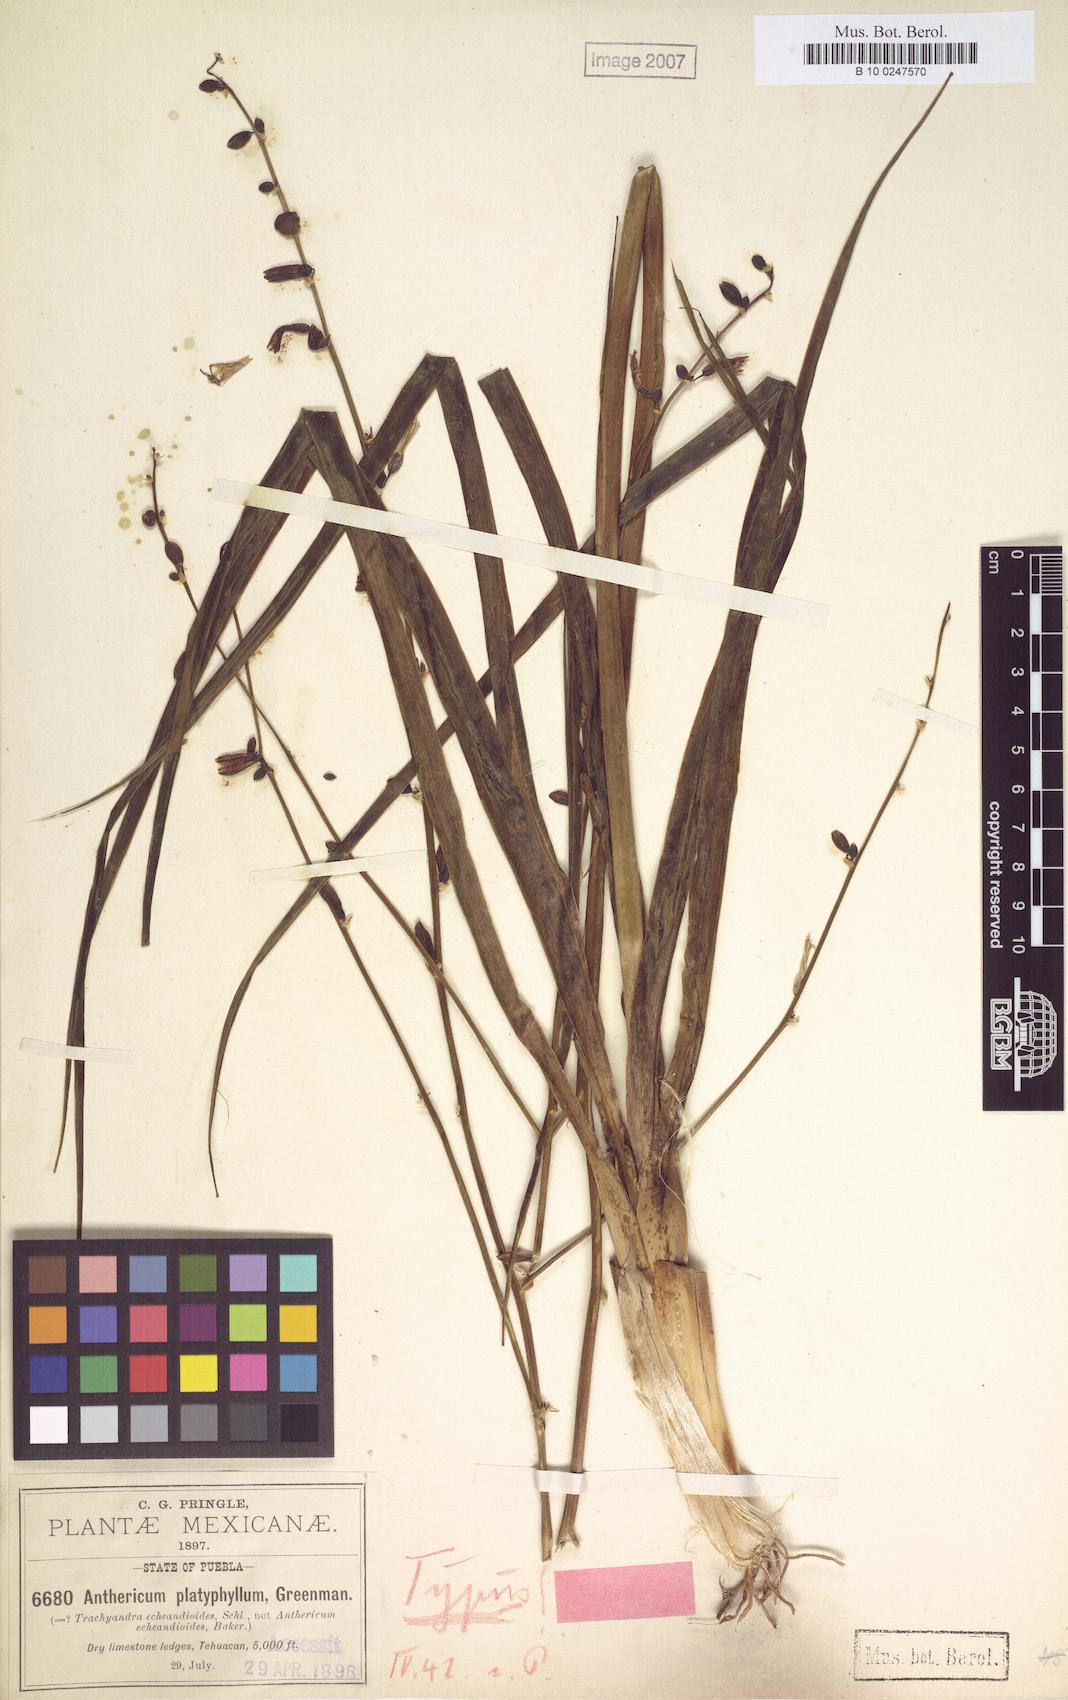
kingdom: Plantae
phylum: Tracheophyta
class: Liliopsida
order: Asparagales
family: Asparagaceae
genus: Echeandia
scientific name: Echeandia platyphylla
